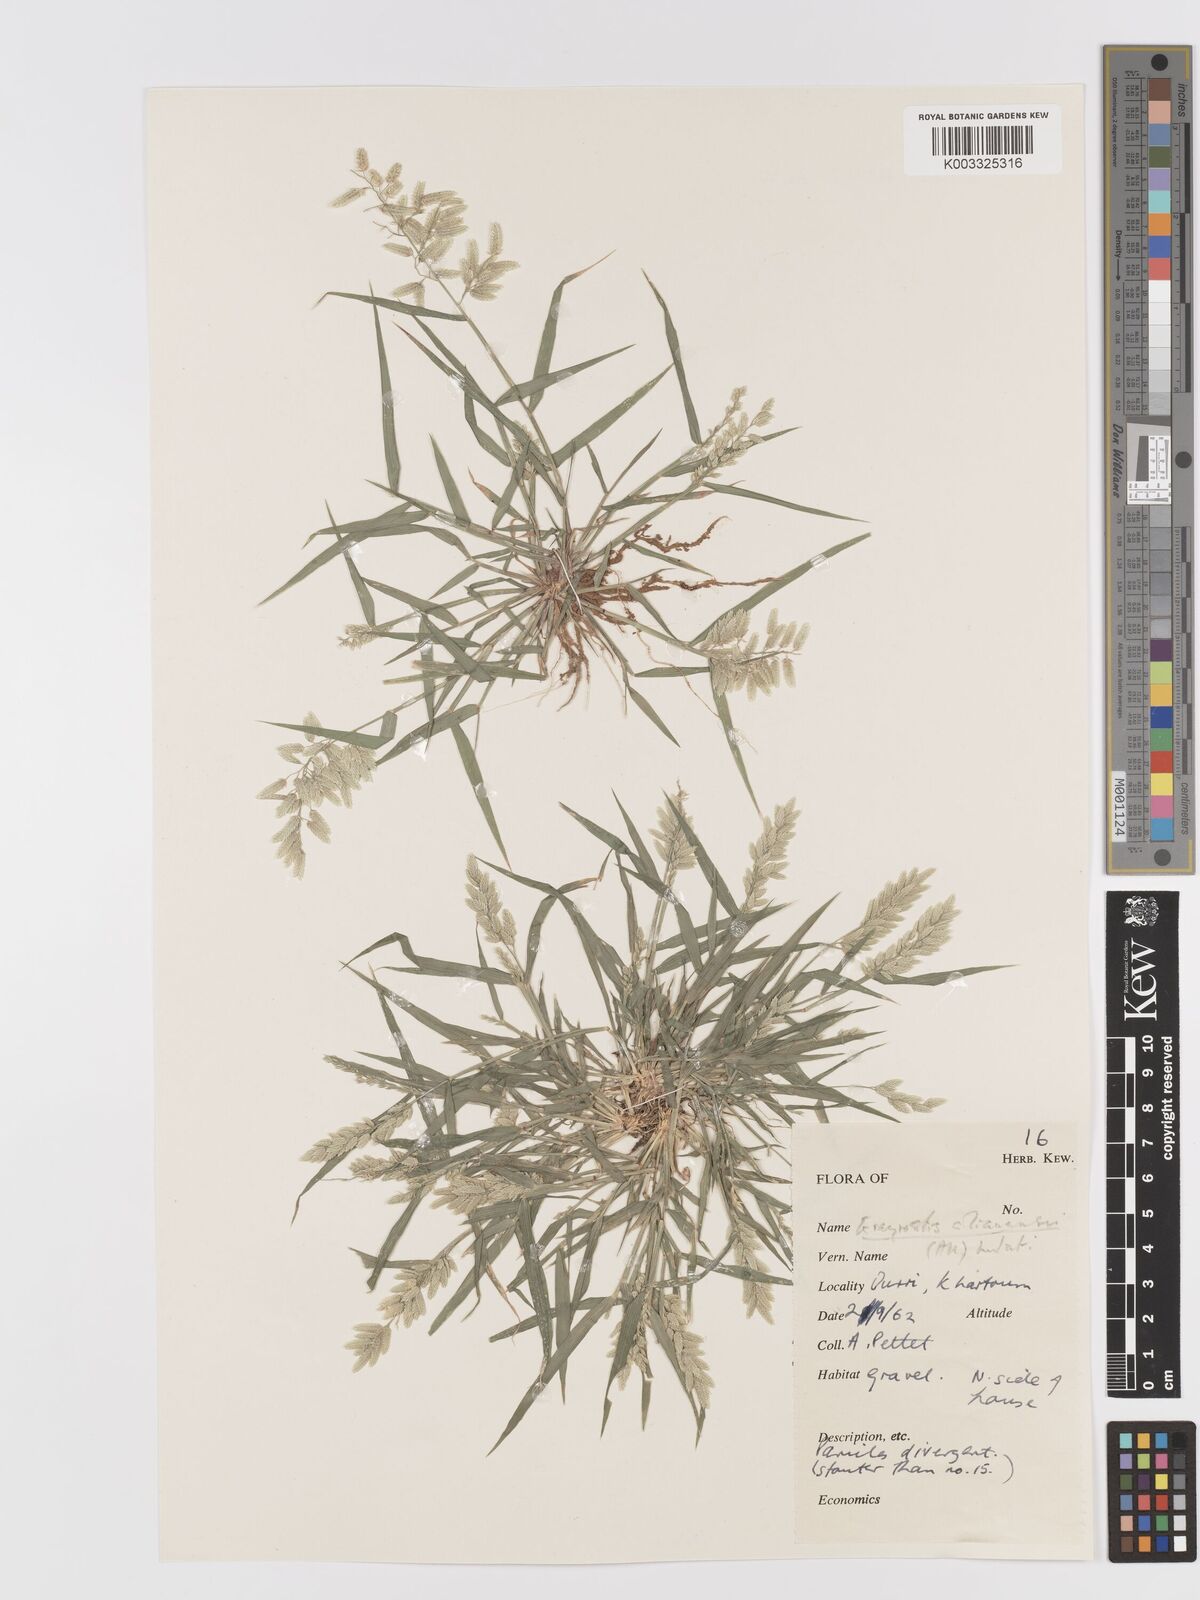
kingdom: Plantae
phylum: Tracheophyta
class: Liliopsida
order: Poales
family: Poaceae
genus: Eragrostis
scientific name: Eragrostis cilianensis
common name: Stinkgrass
